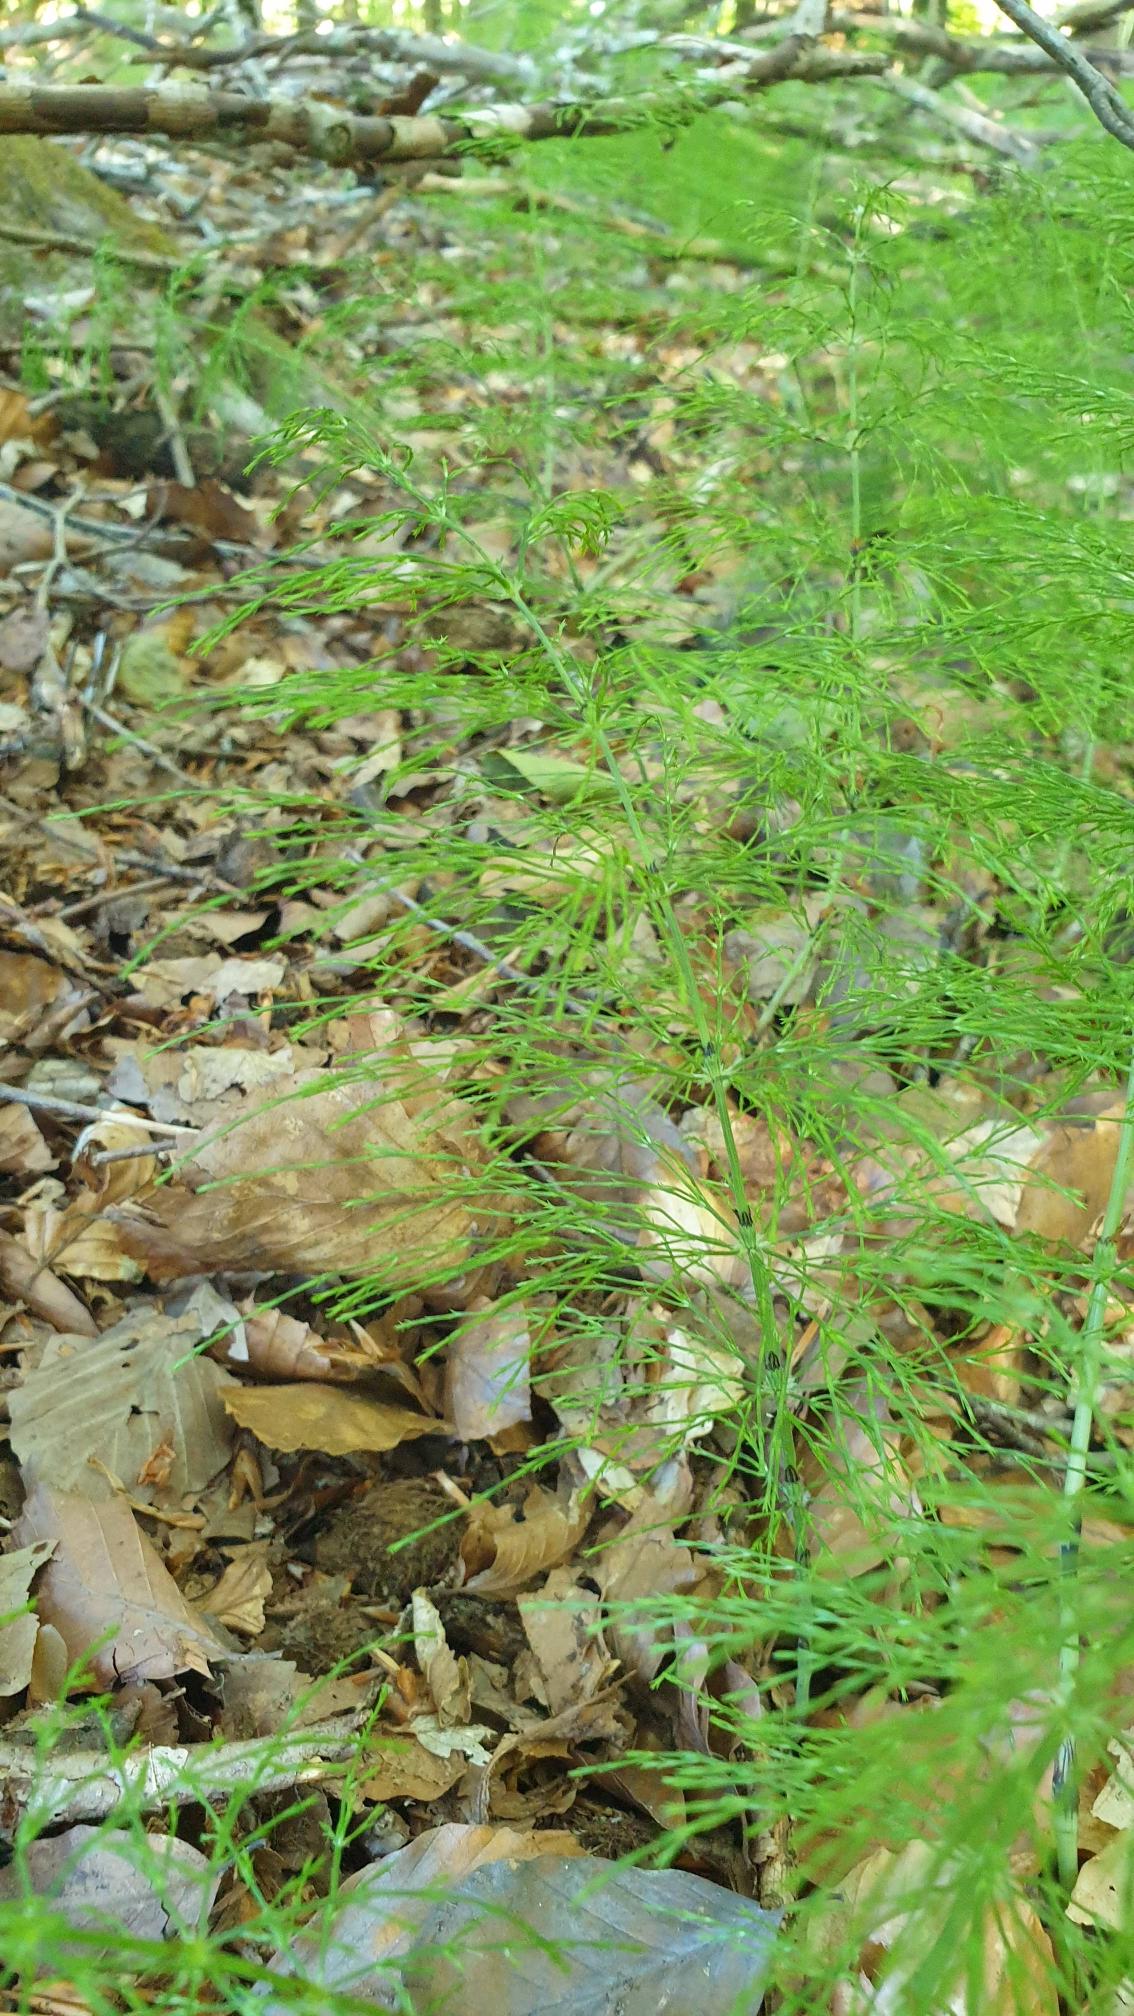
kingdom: Plantae
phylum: Tracheophyta
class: Polypodiopsida
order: Equisetales
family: Equisetaceae
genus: Equisetum
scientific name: Equisetum sylvaticum
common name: Skov-padderok
